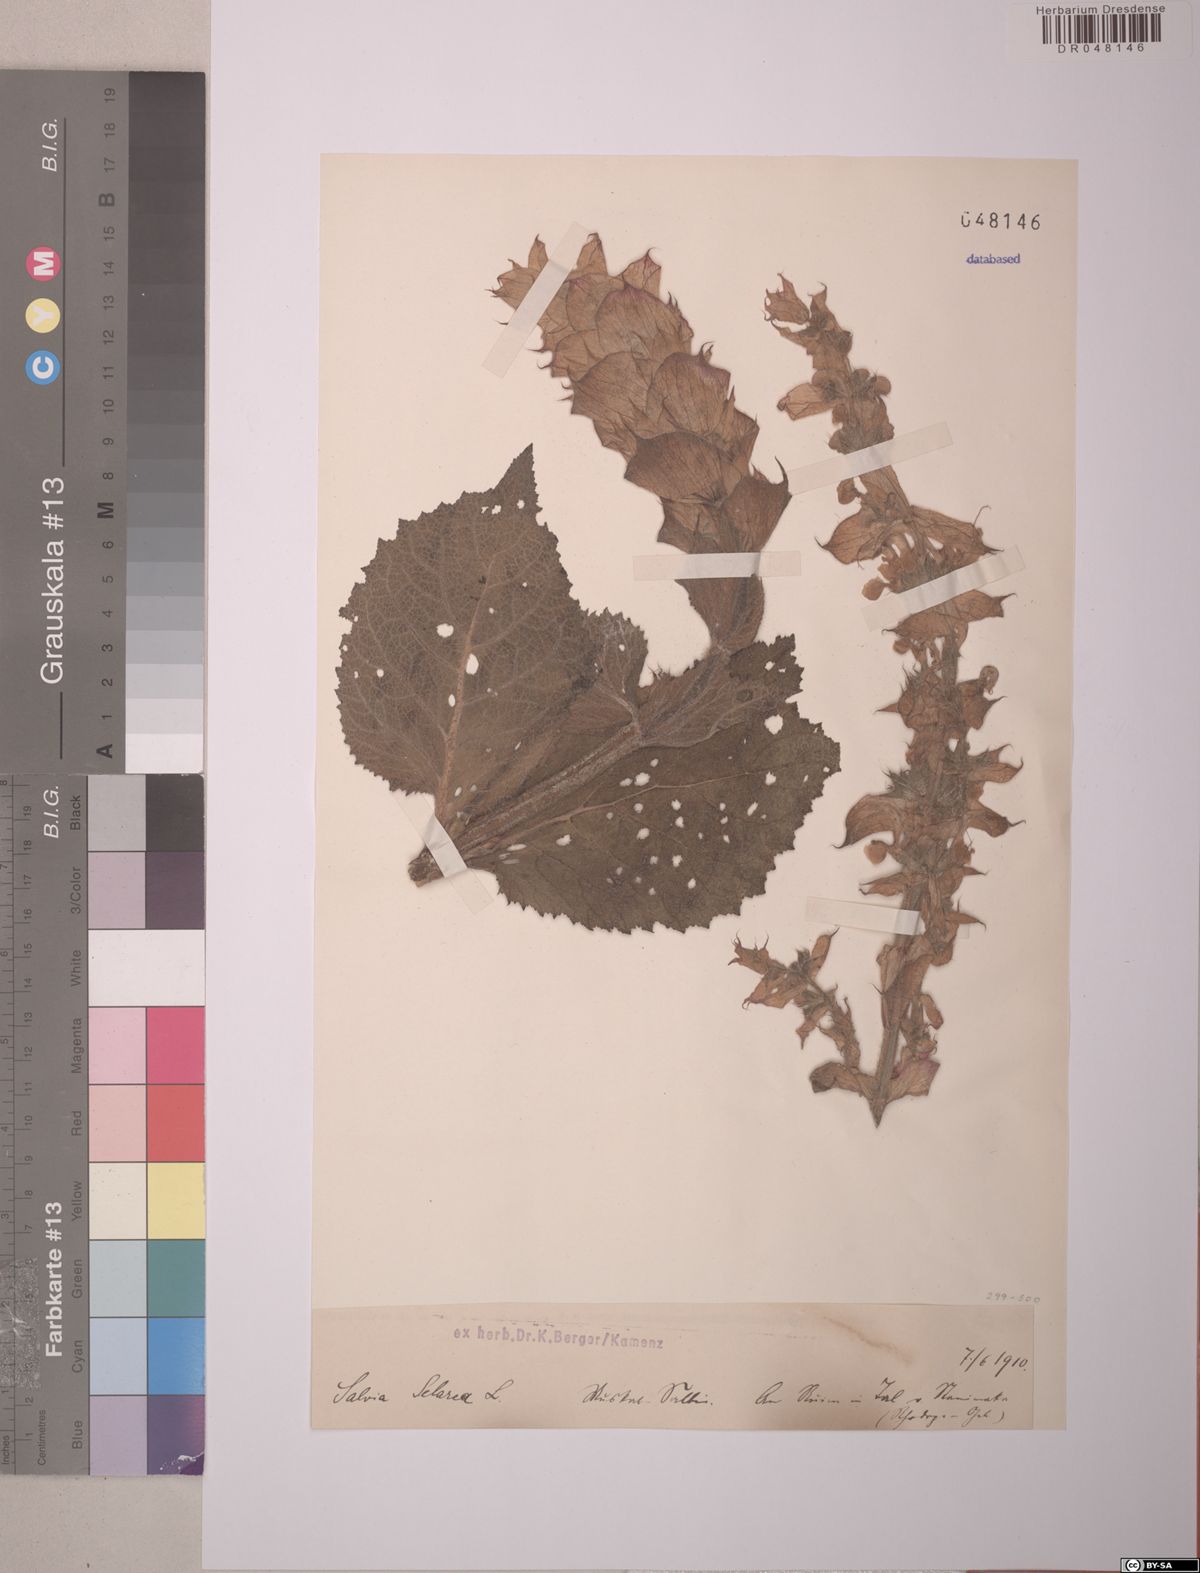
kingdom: Plantae
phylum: Tracheophyta
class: Magnoliopsida
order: Lamiales
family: Lamiaceae
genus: Salvia
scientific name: Salvia sclarea
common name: Clary
